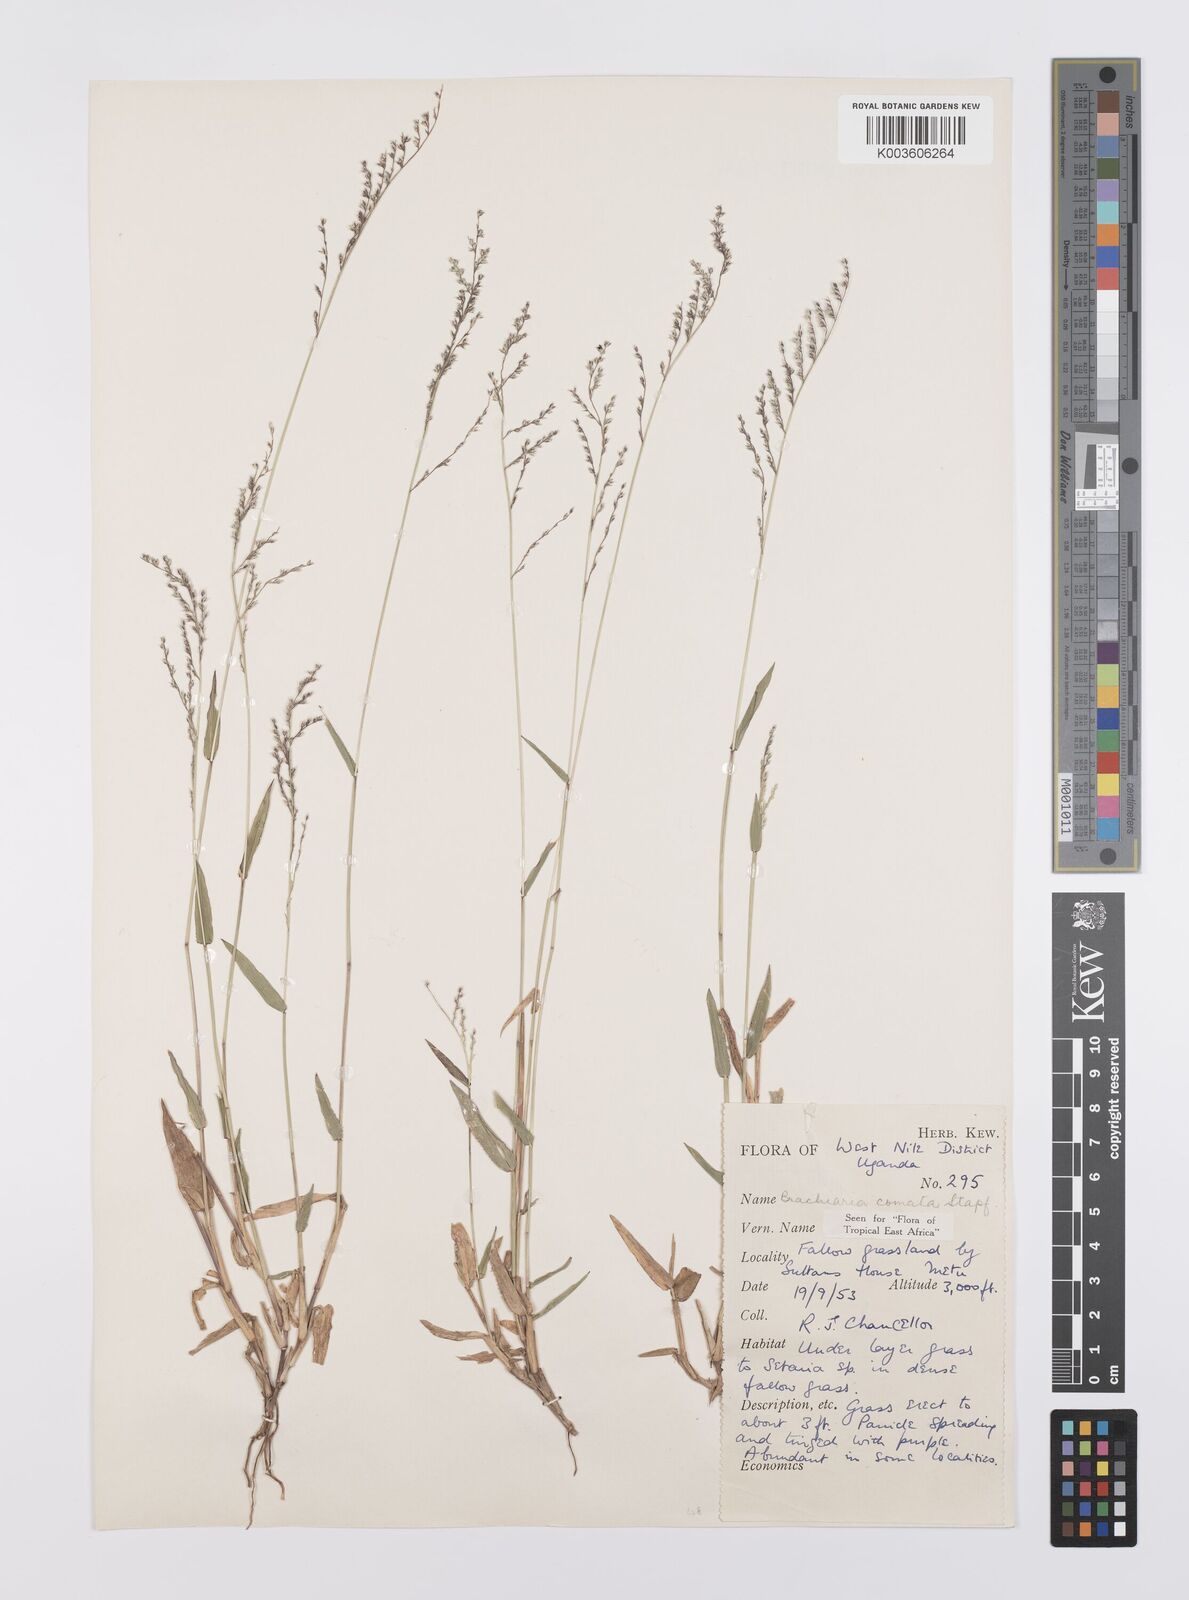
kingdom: Plantae
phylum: Tracheophyta
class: Liliopsida
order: Poales
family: Poaceae
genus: Urochloa
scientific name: Urochloa comata
